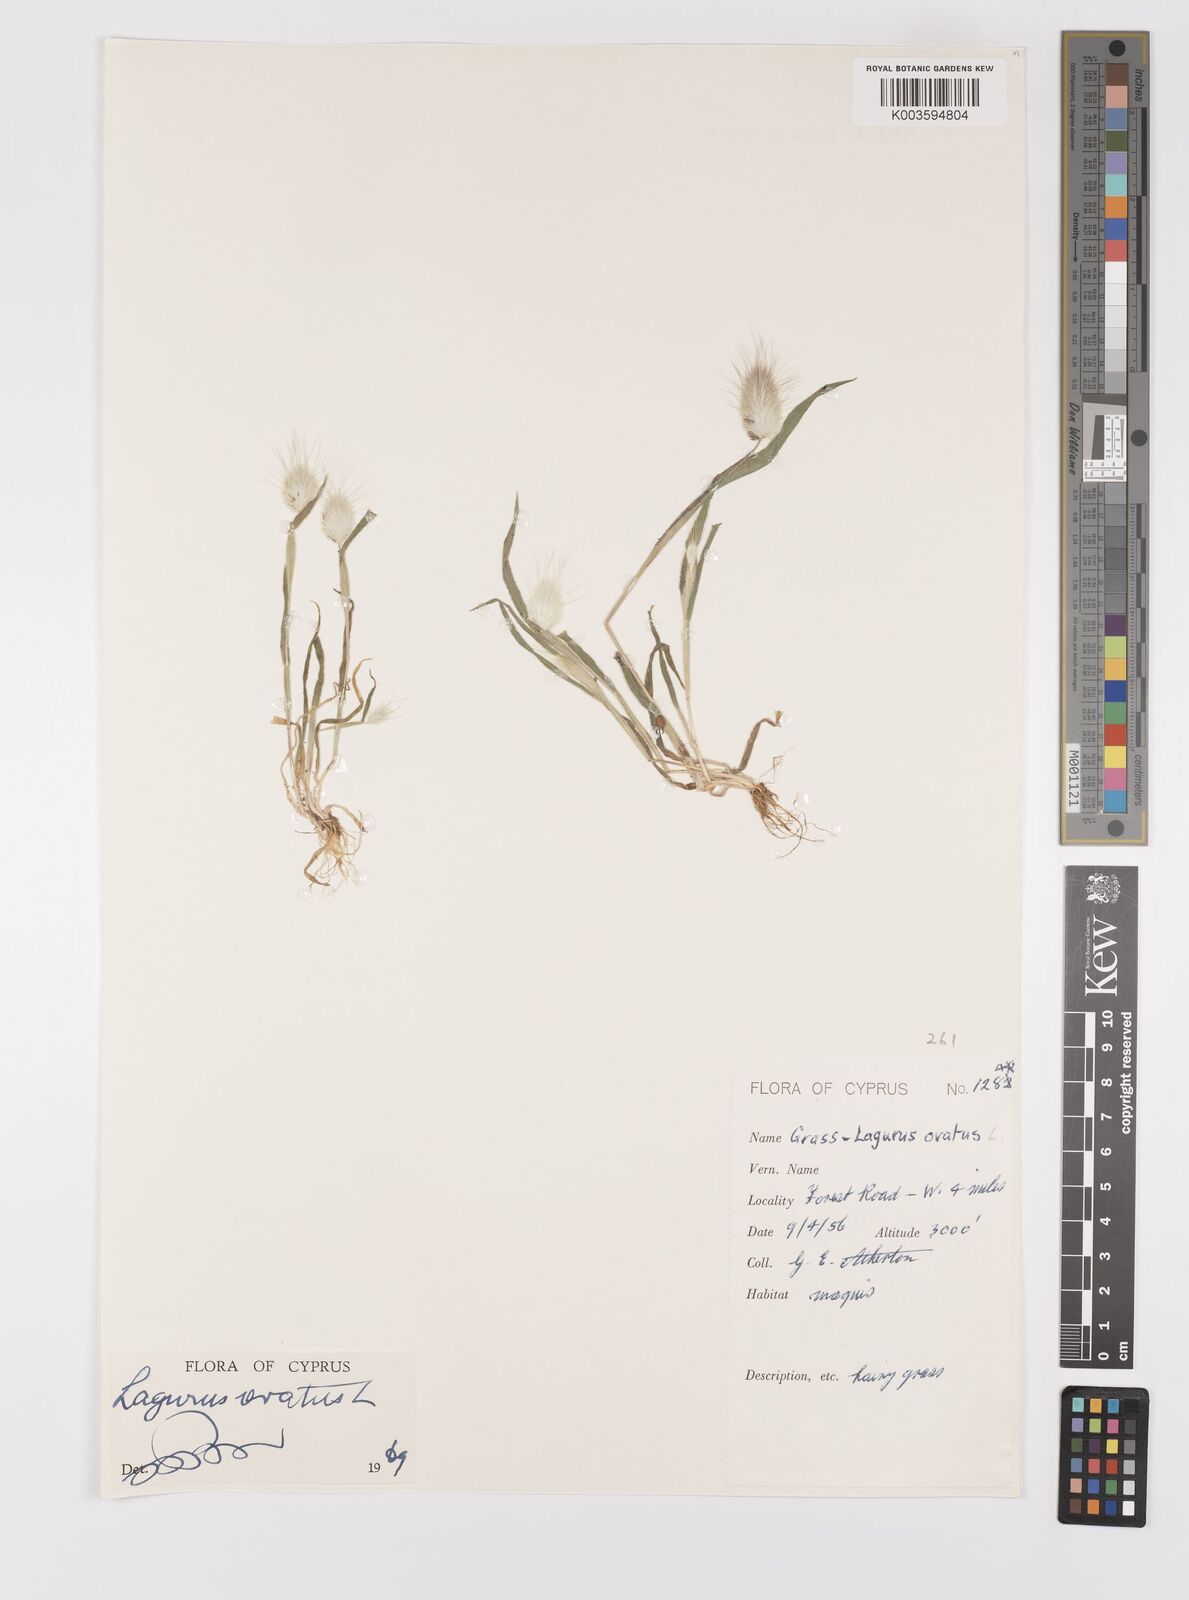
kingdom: Plantae
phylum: Tracheophyta
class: Liliopsida
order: Poales
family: Poaceae
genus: Lagurus
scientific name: Lagurus ovatus
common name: Hare's-tail
